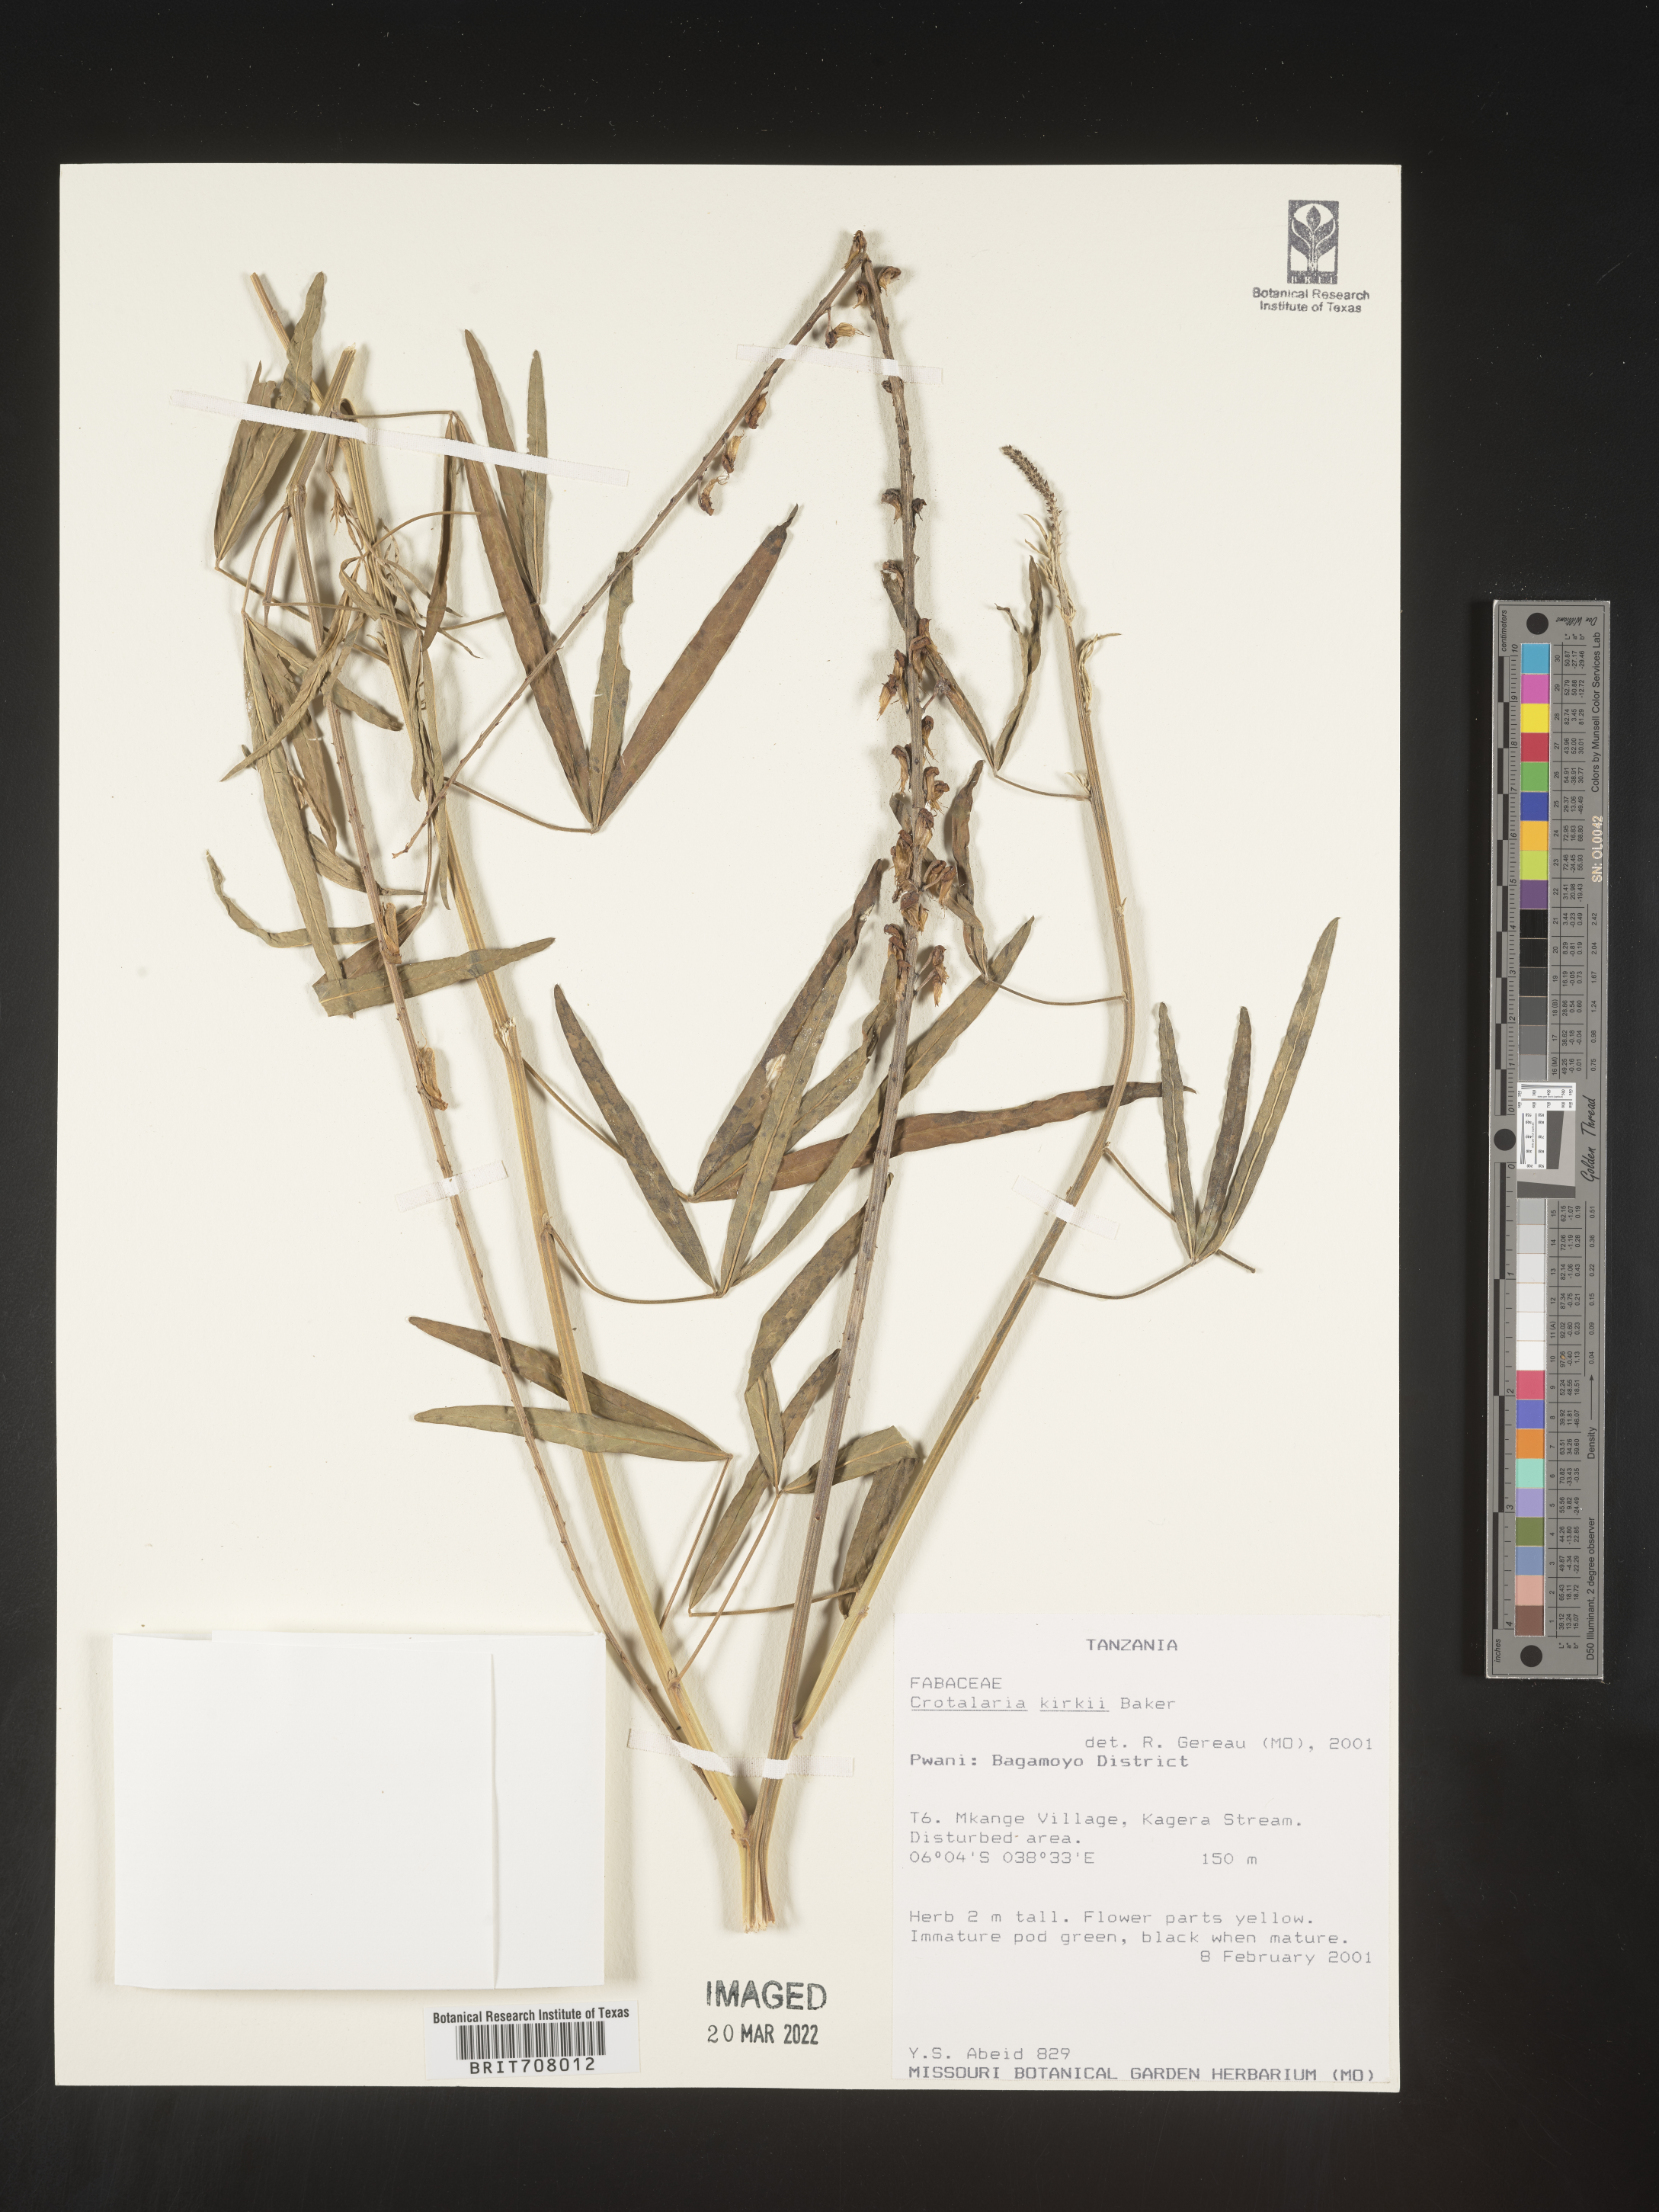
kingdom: Plantae
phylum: Tracheophyta
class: Magnoliopsida
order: Fabales
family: Fabaceae
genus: Crotalaria
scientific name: Crotalaria
